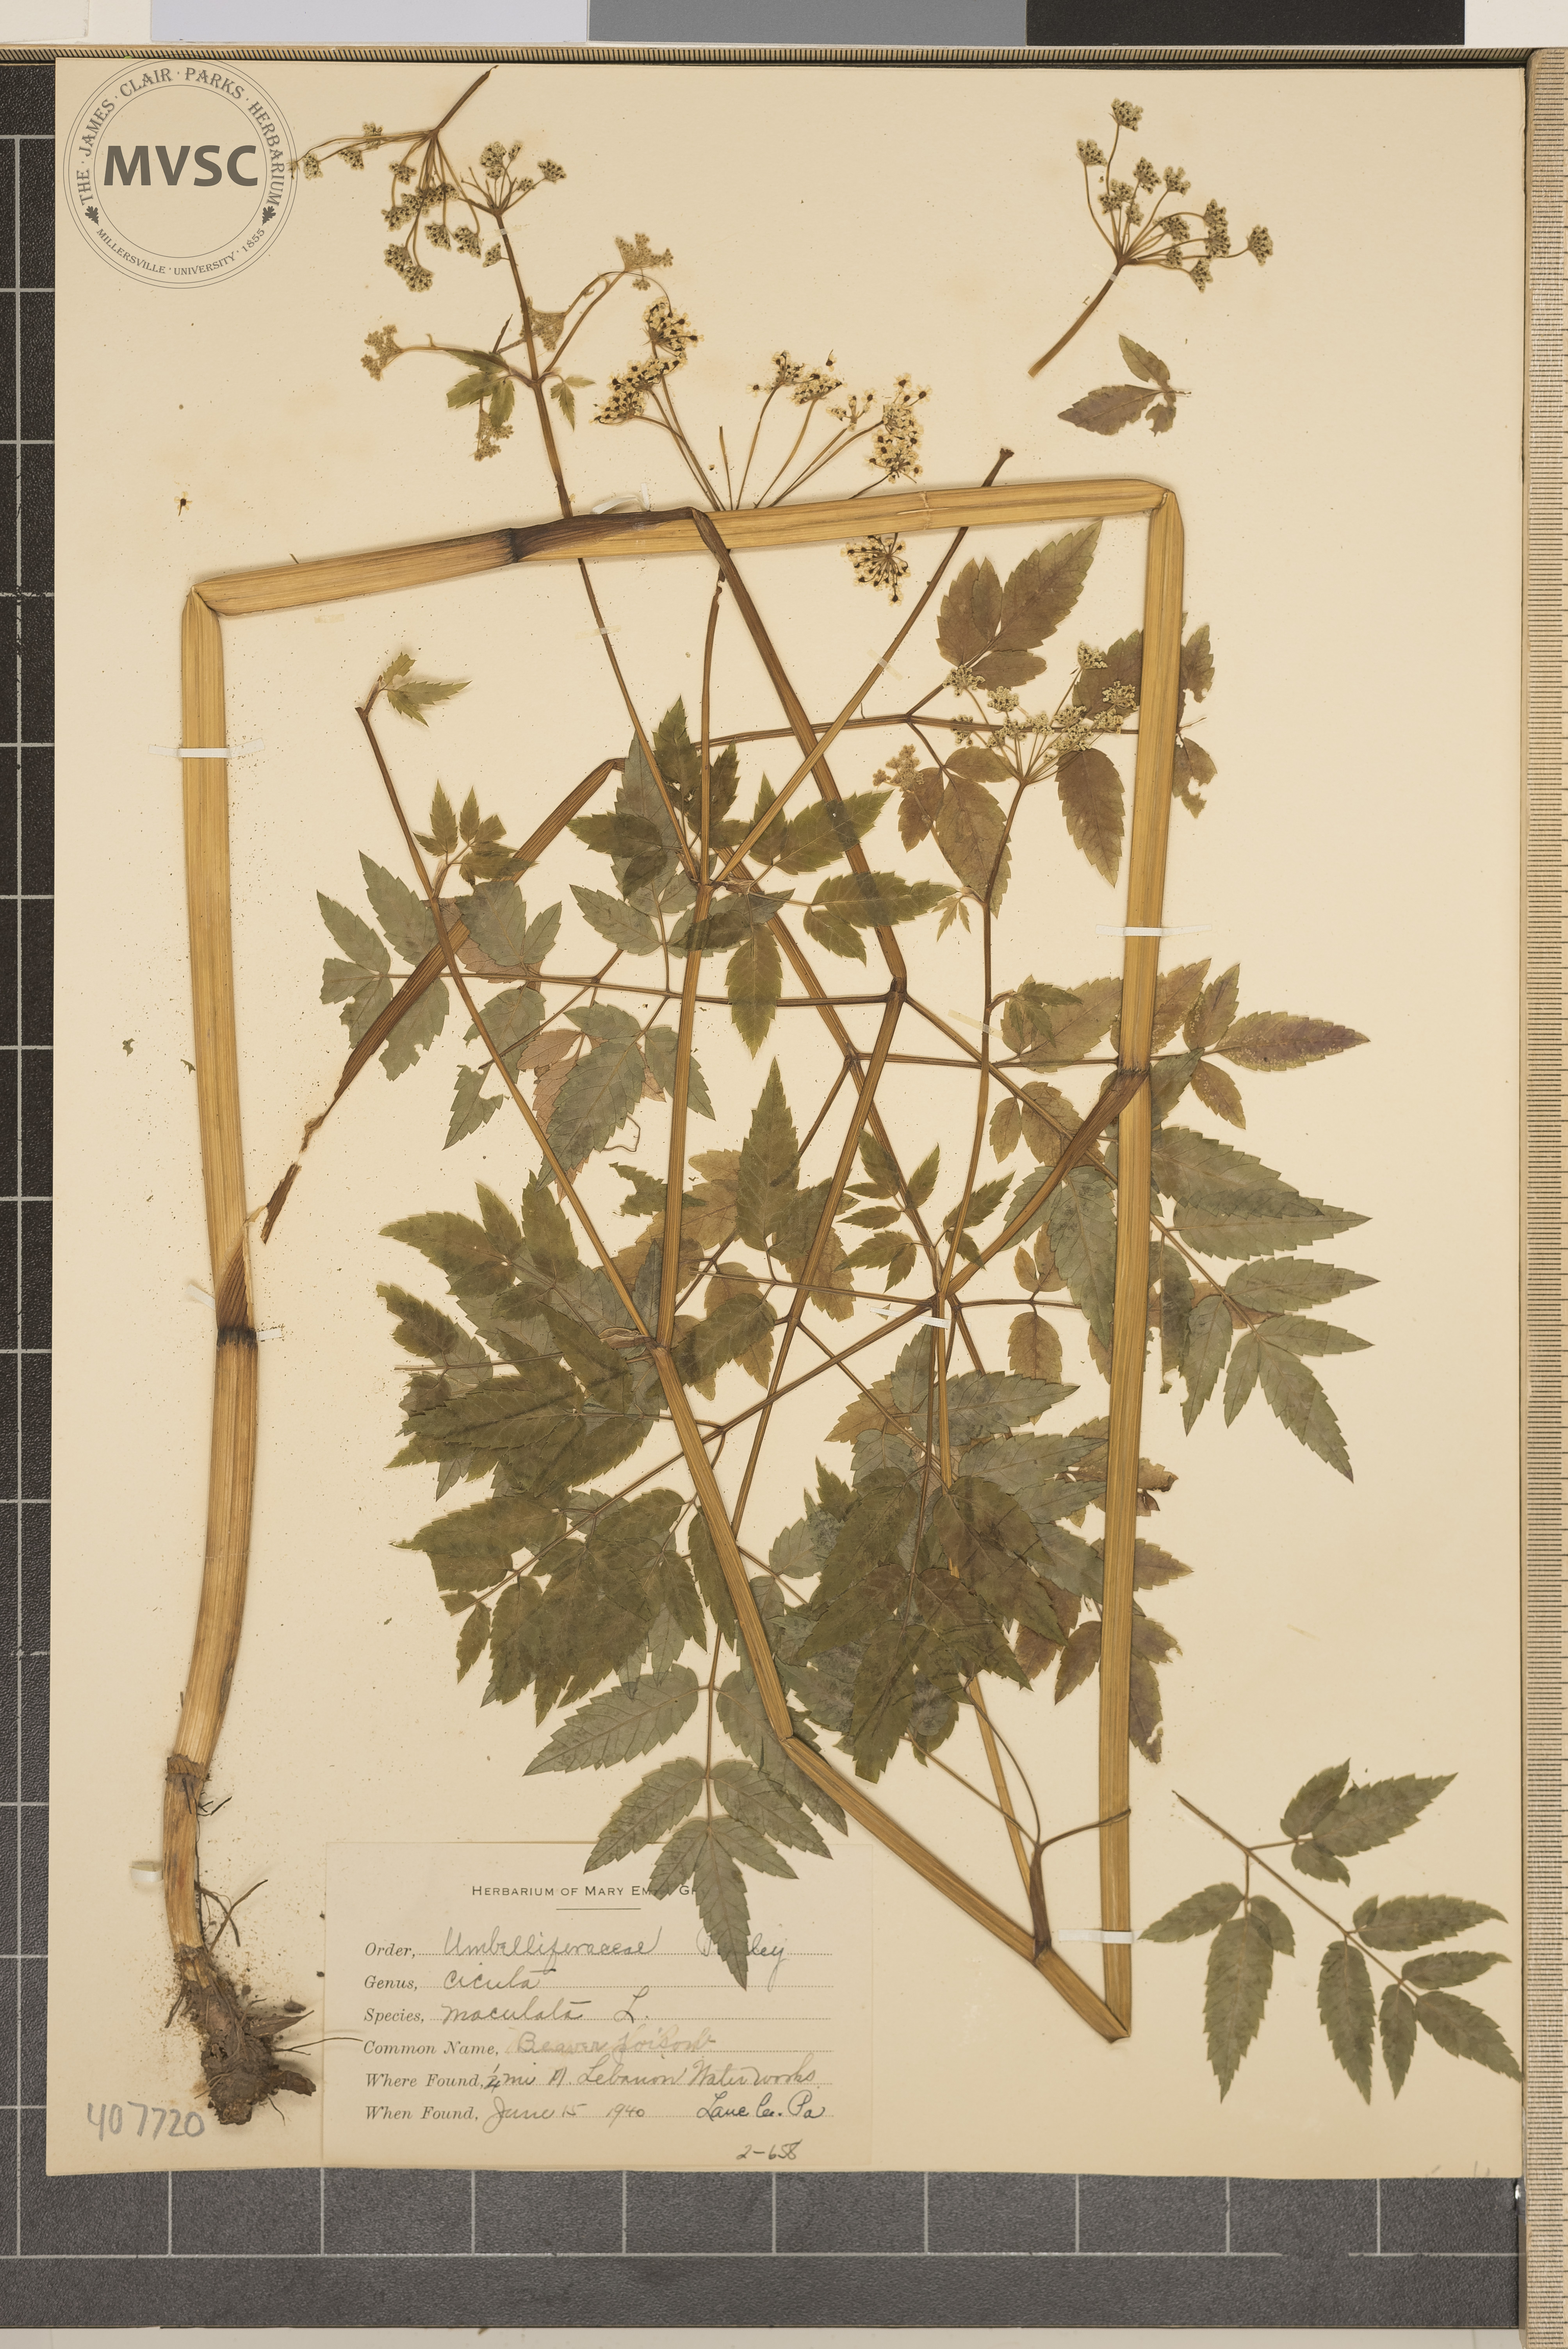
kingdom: Plantae
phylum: Tracheophyta
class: Magnoliopsida
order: Apiales
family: Apiaceae
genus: Cicuta
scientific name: Cicuta maculata
